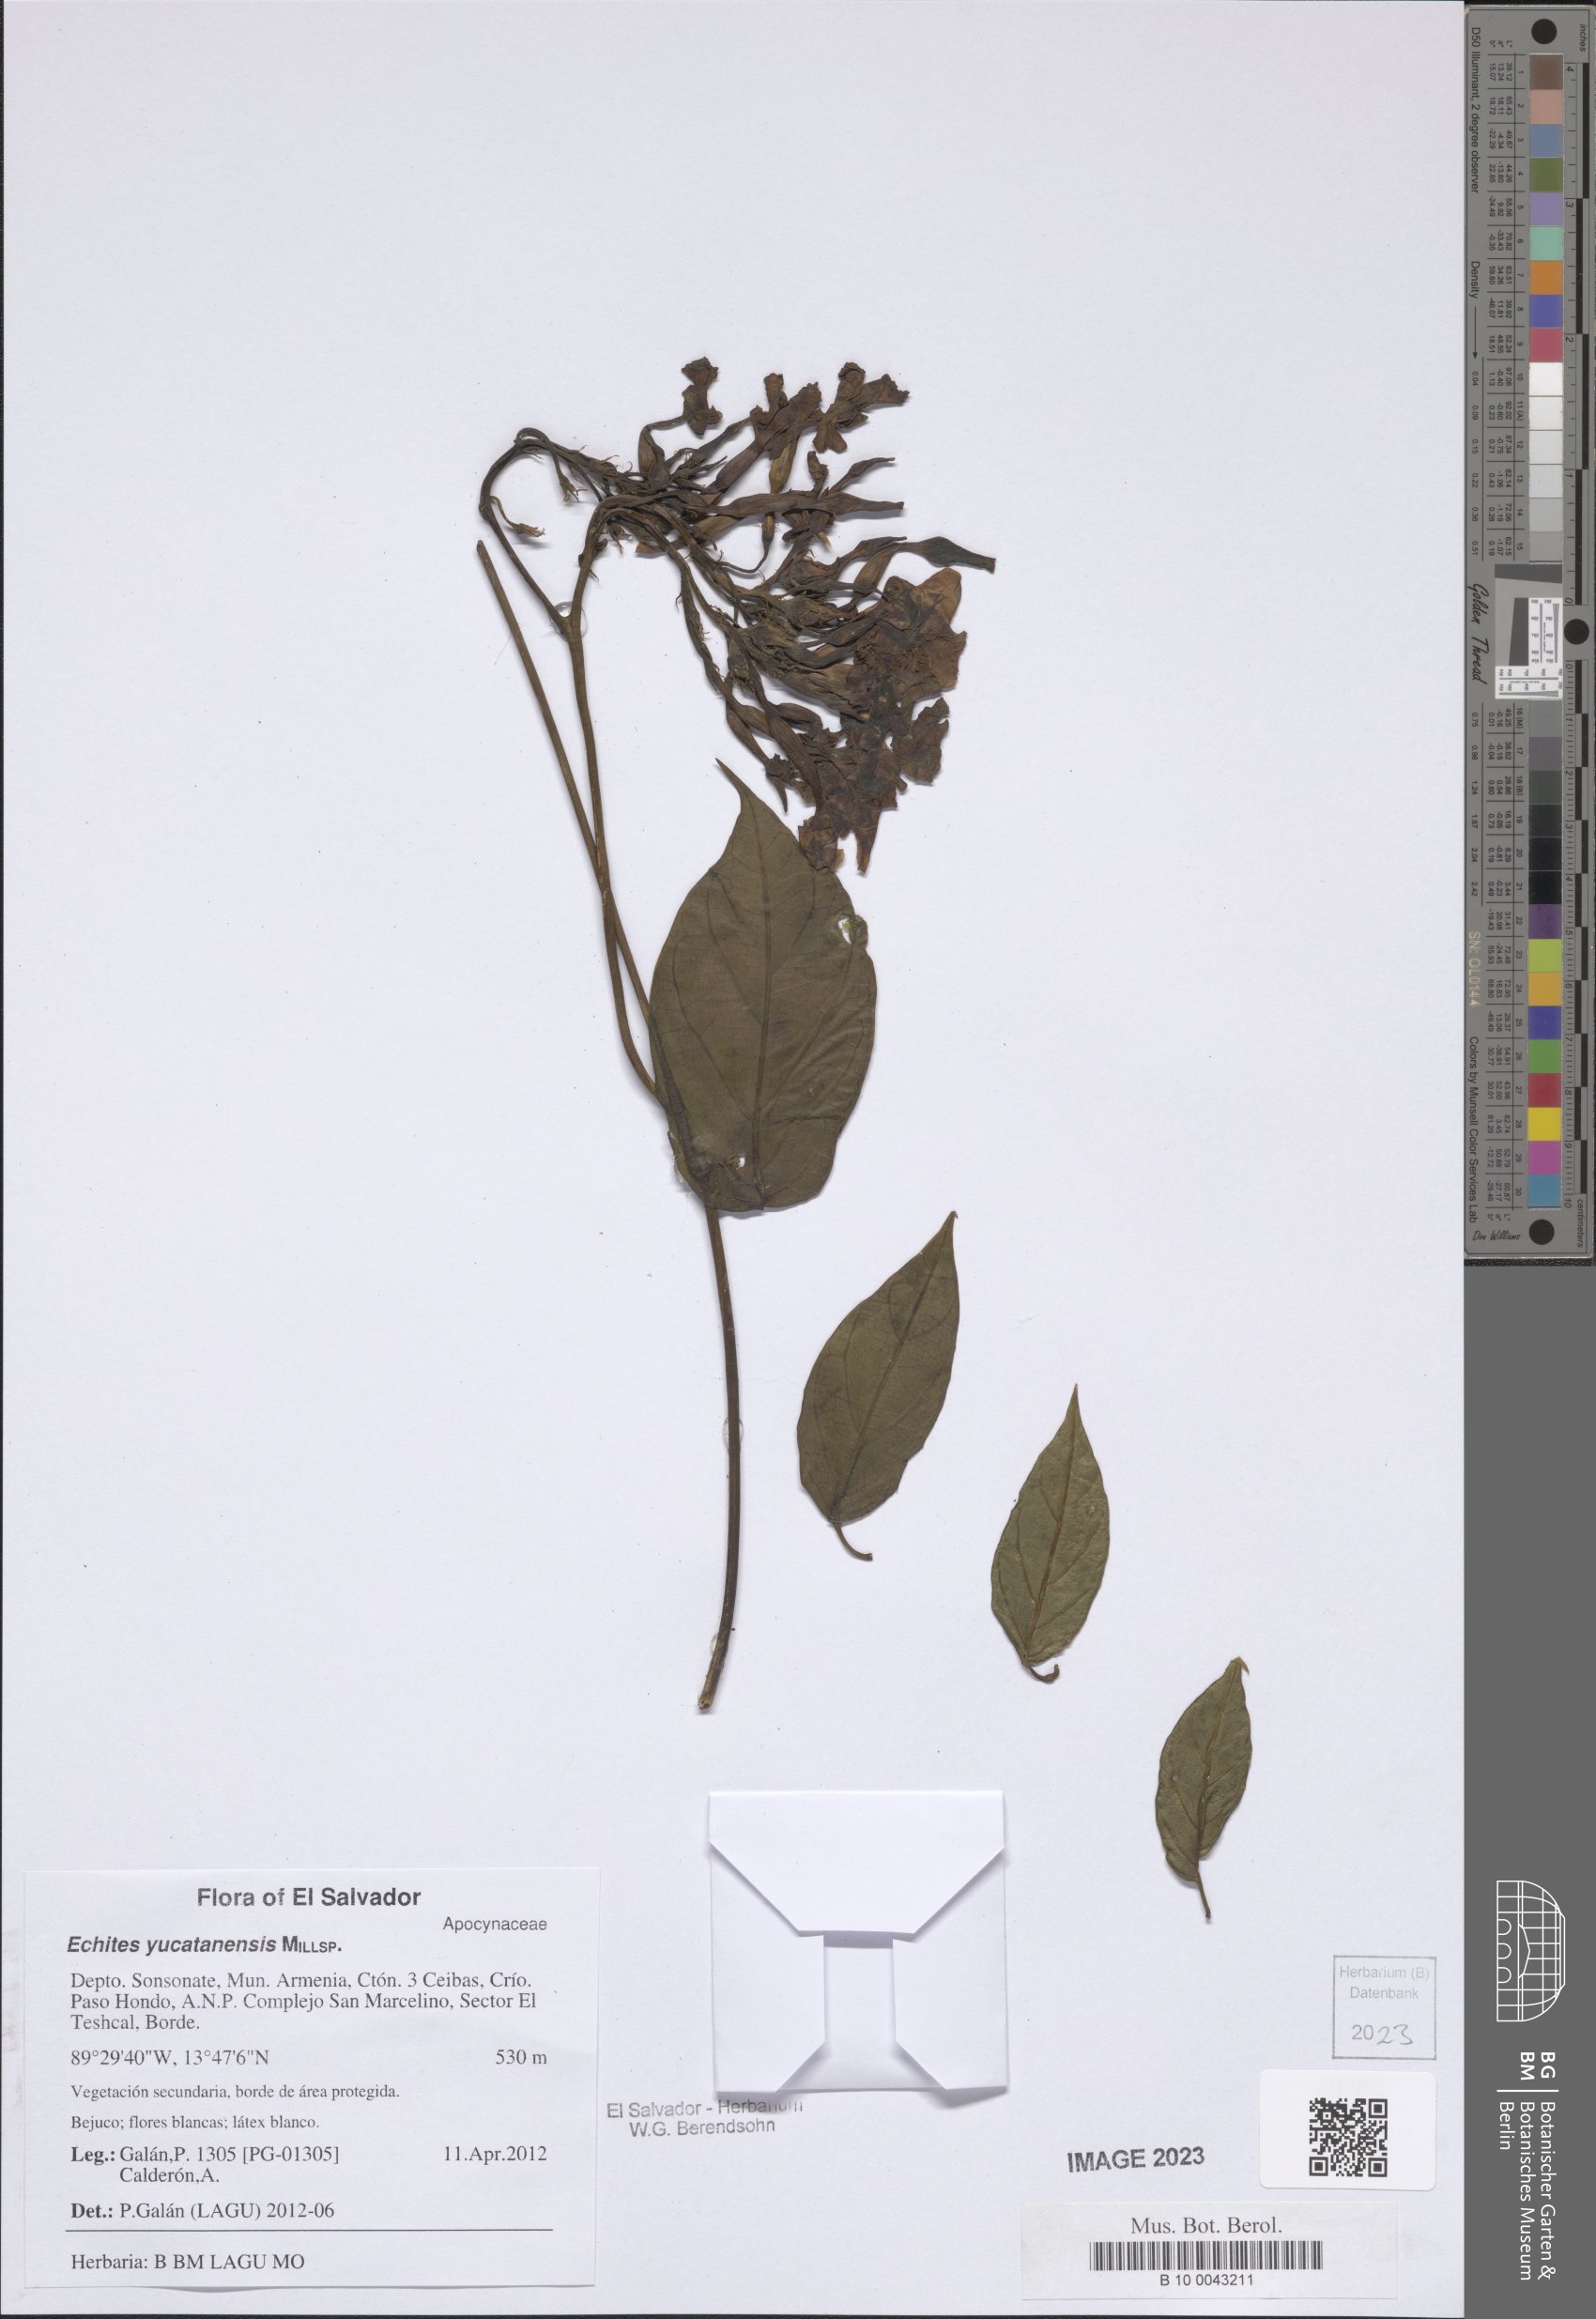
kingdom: Plantae
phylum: Tracheophyta
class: Magnoliopsida
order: Gentianales
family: Apocynaceae
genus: Echites
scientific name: Echites yucatanensis
